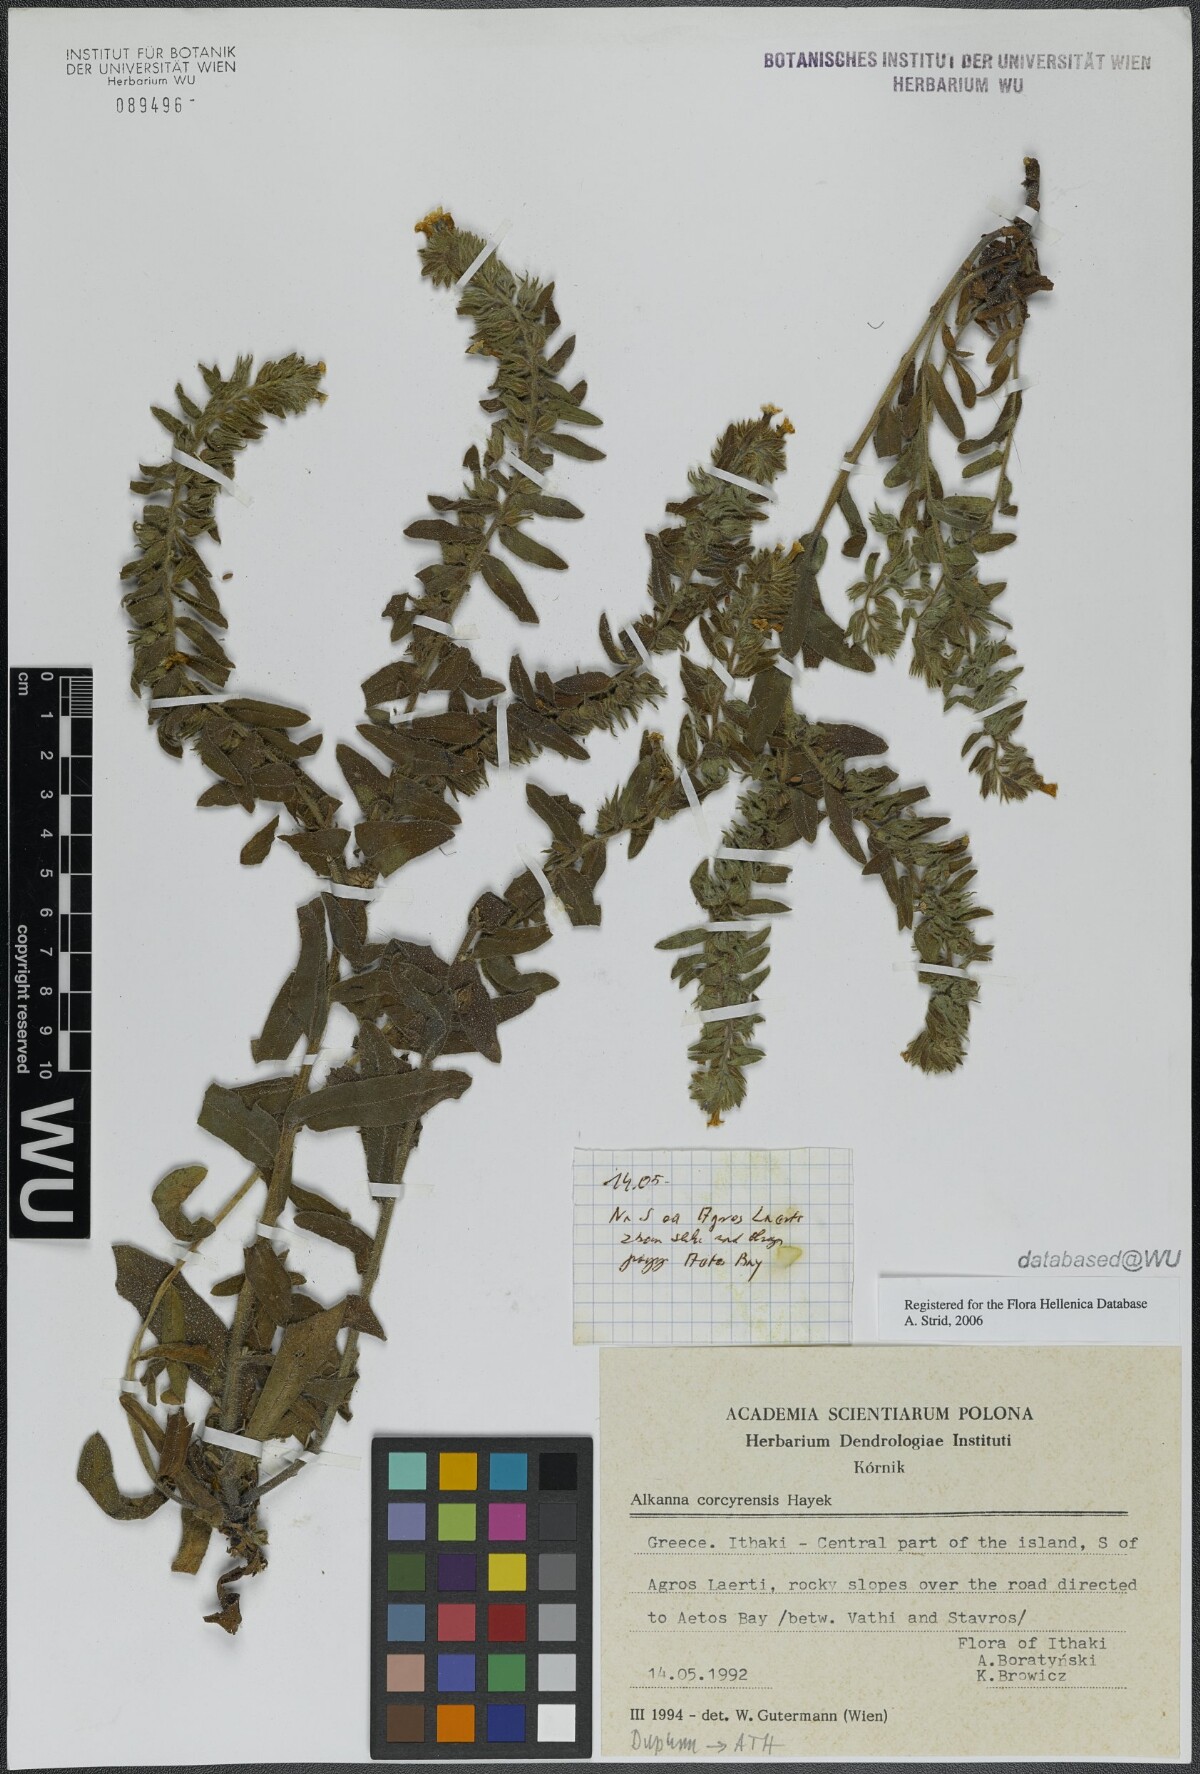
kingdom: Plantae
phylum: Tracheophyta
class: Magnoliopsida
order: Boraginales
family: Boraginaceae
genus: Alkanna
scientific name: Alkanna corcyrensis
